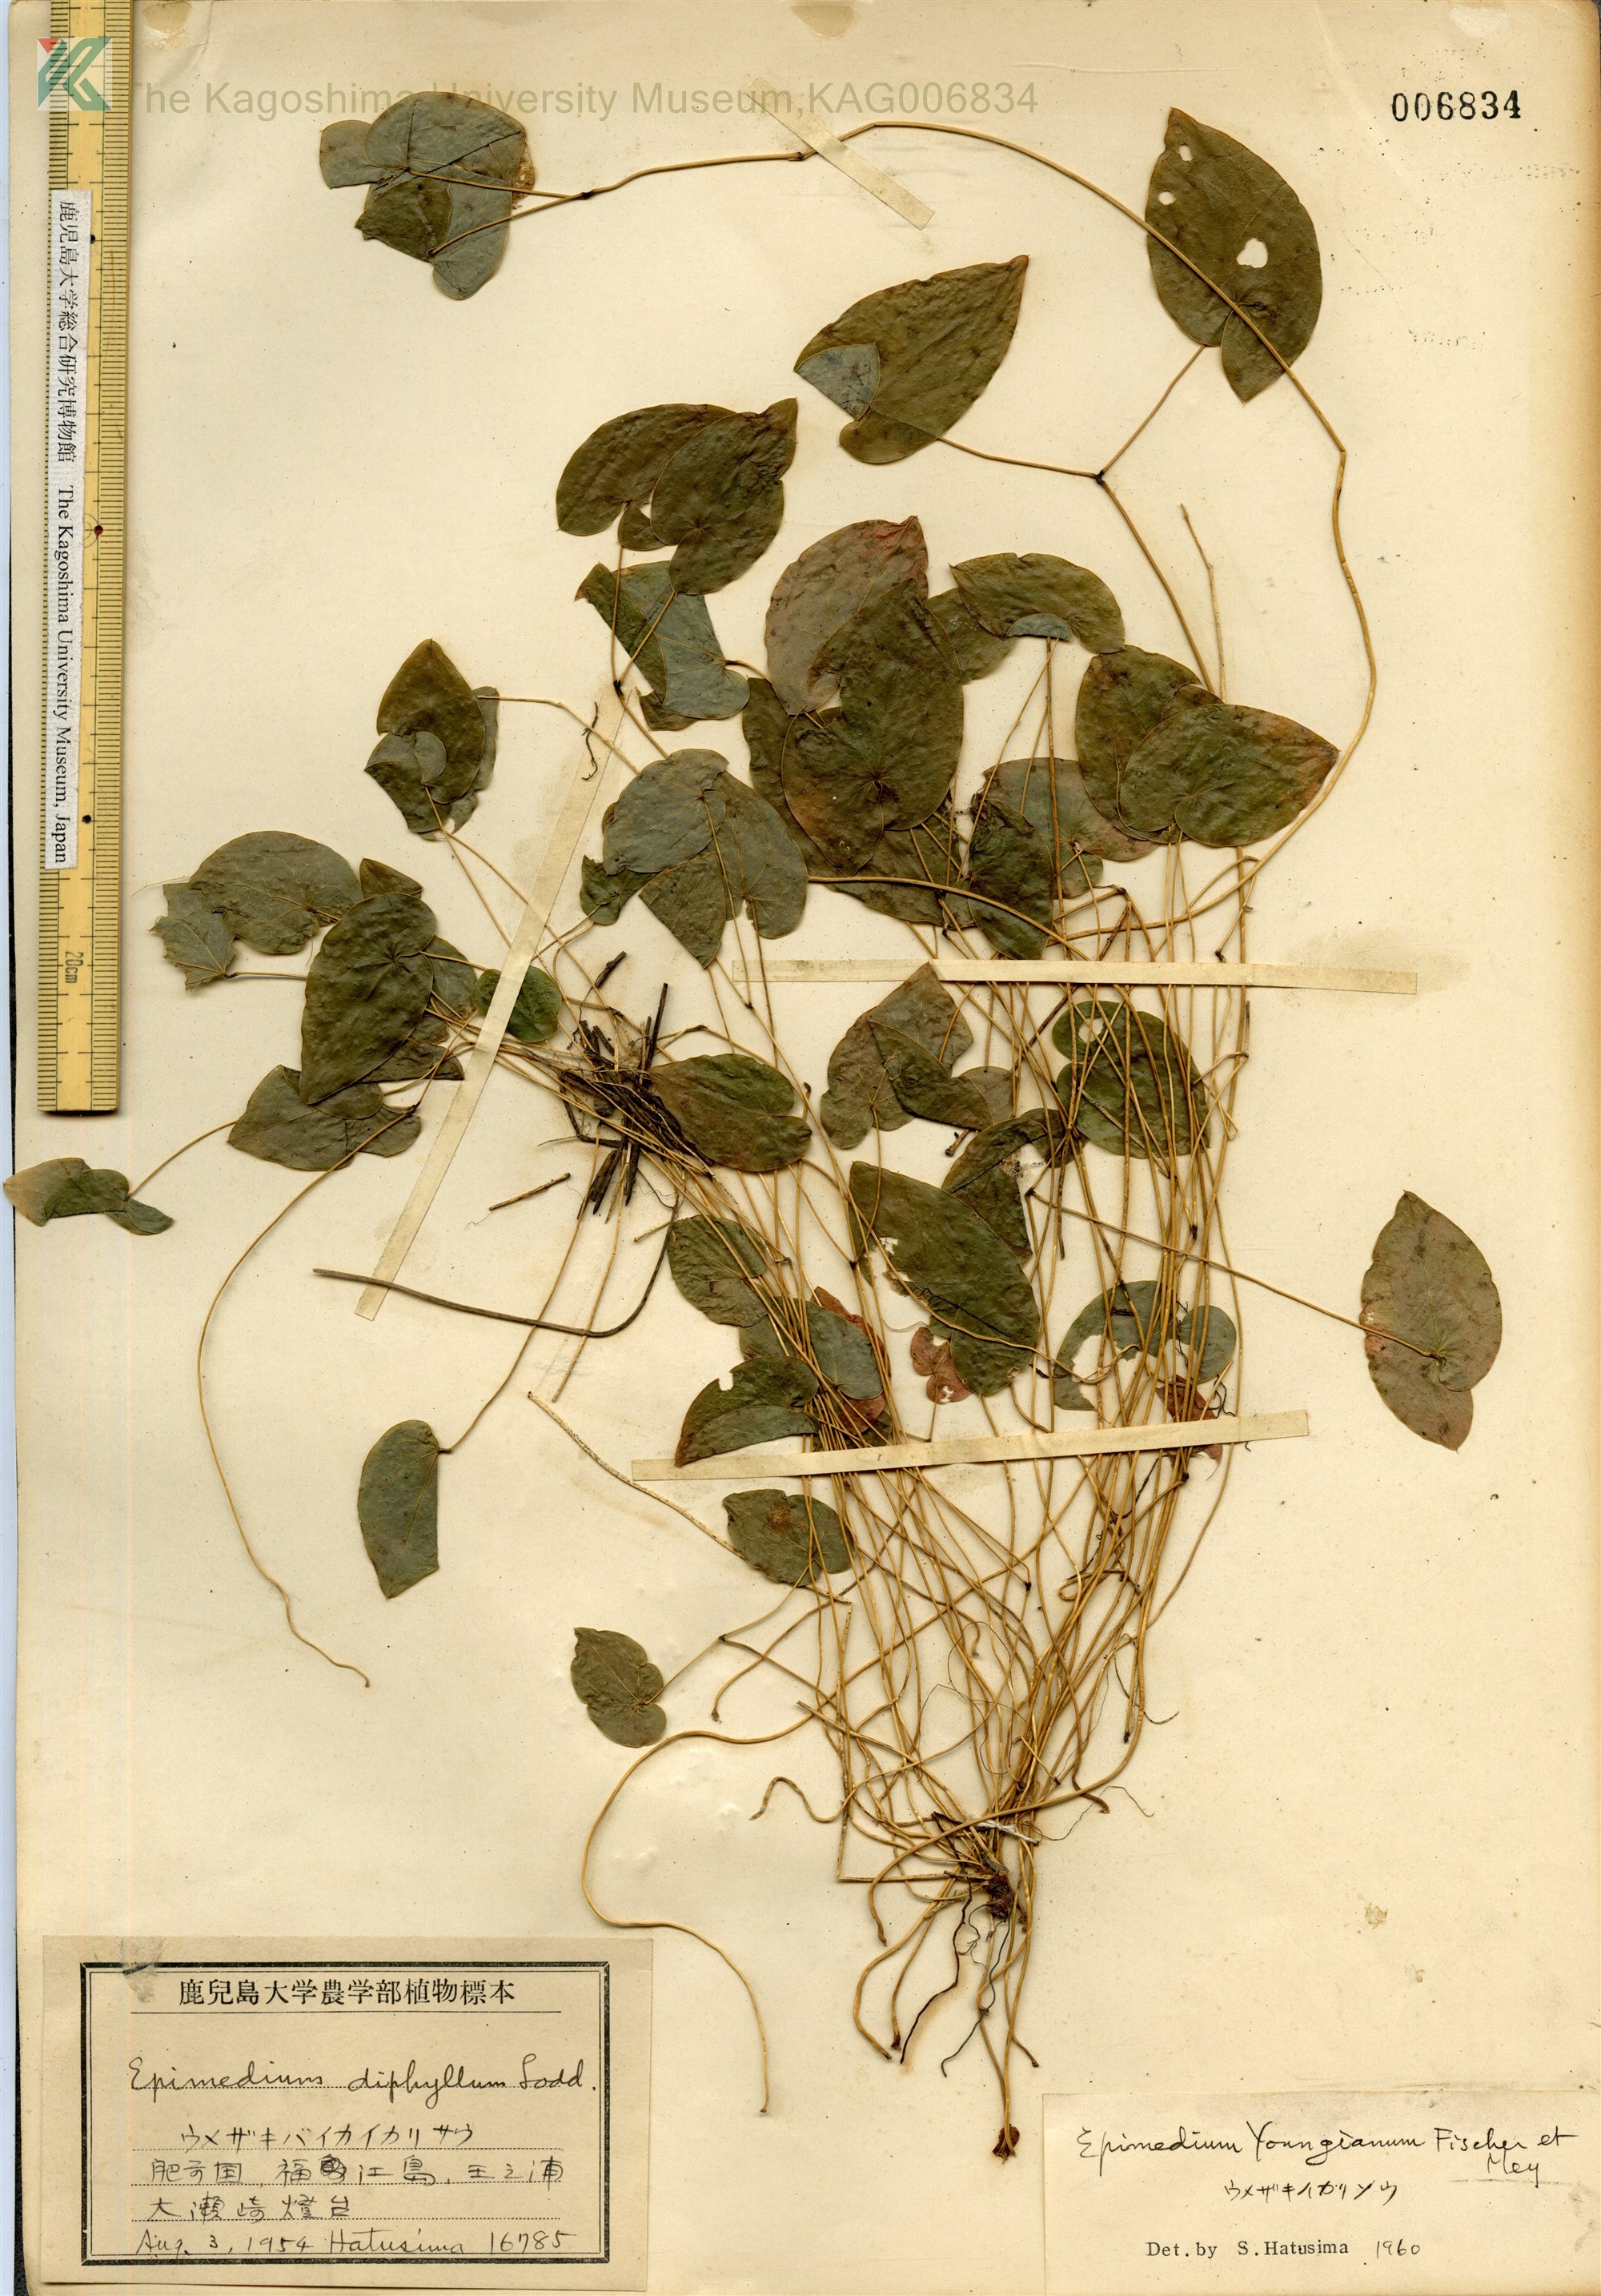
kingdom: Plantae
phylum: Tracheophyta
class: Magnoliopsida
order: Ranunculales
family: Berberidaceae
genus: Epimedium
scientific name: Epimedium youngianum
